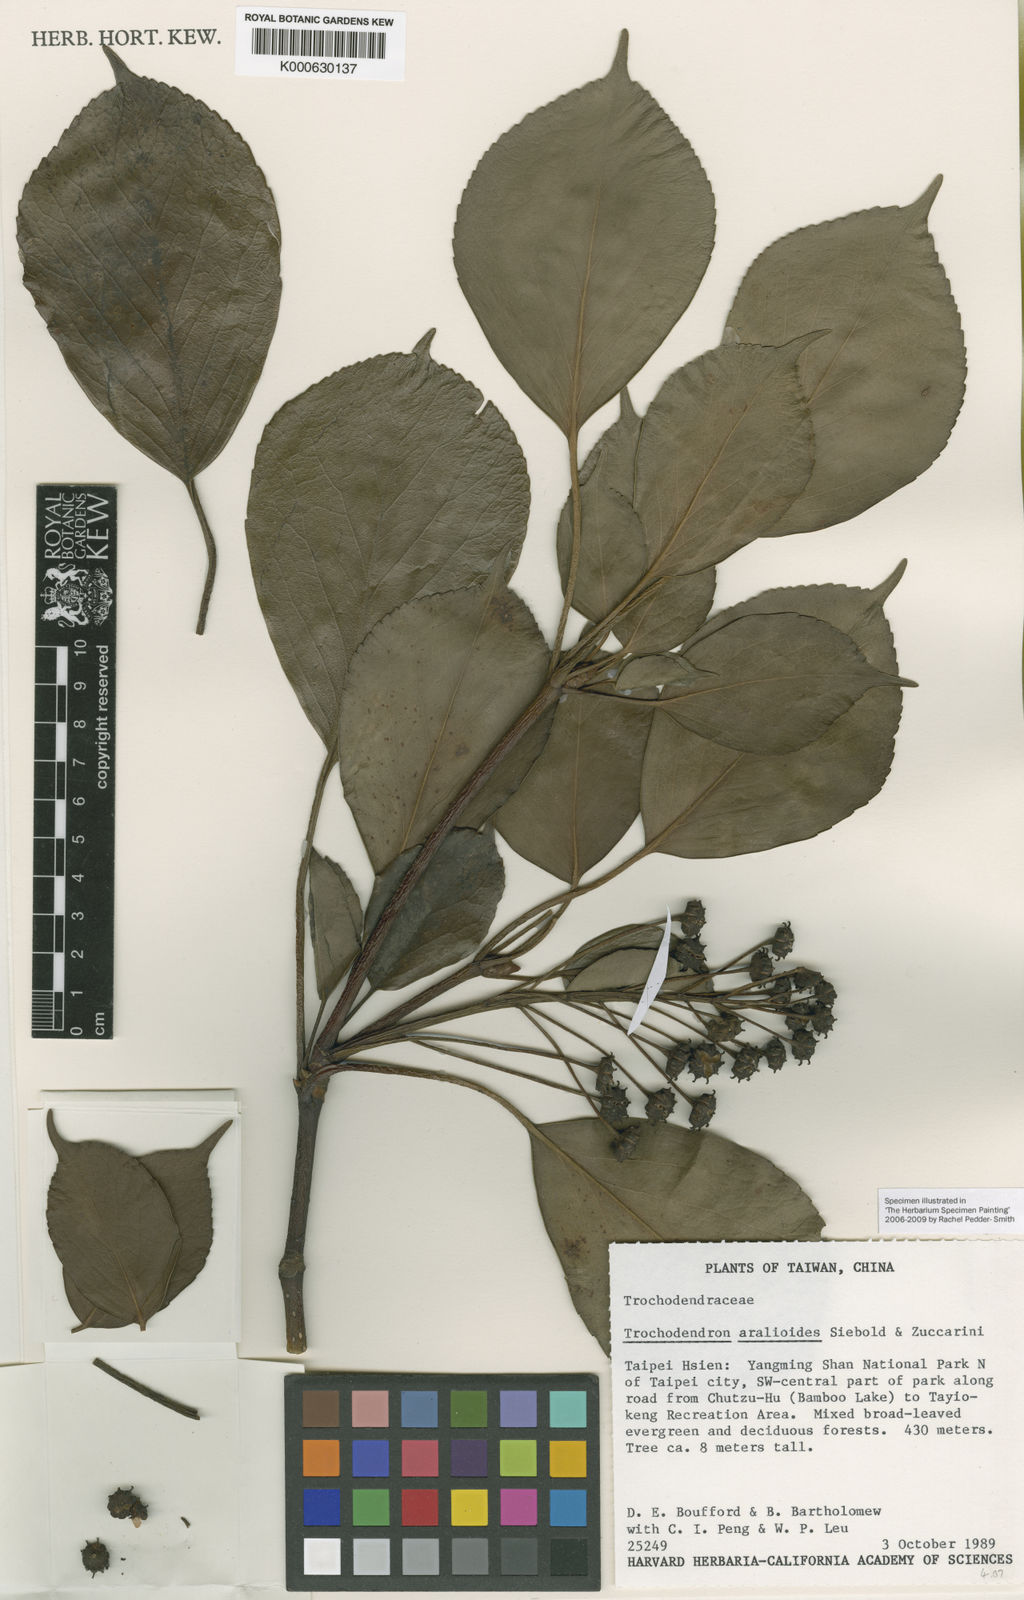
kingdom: Plantae
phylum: Tracheophyta
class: Magnoliopsida
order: Trochodendrales
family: Trochodendraceae
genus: Trochodendron
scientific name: Trochodendron aralioides
